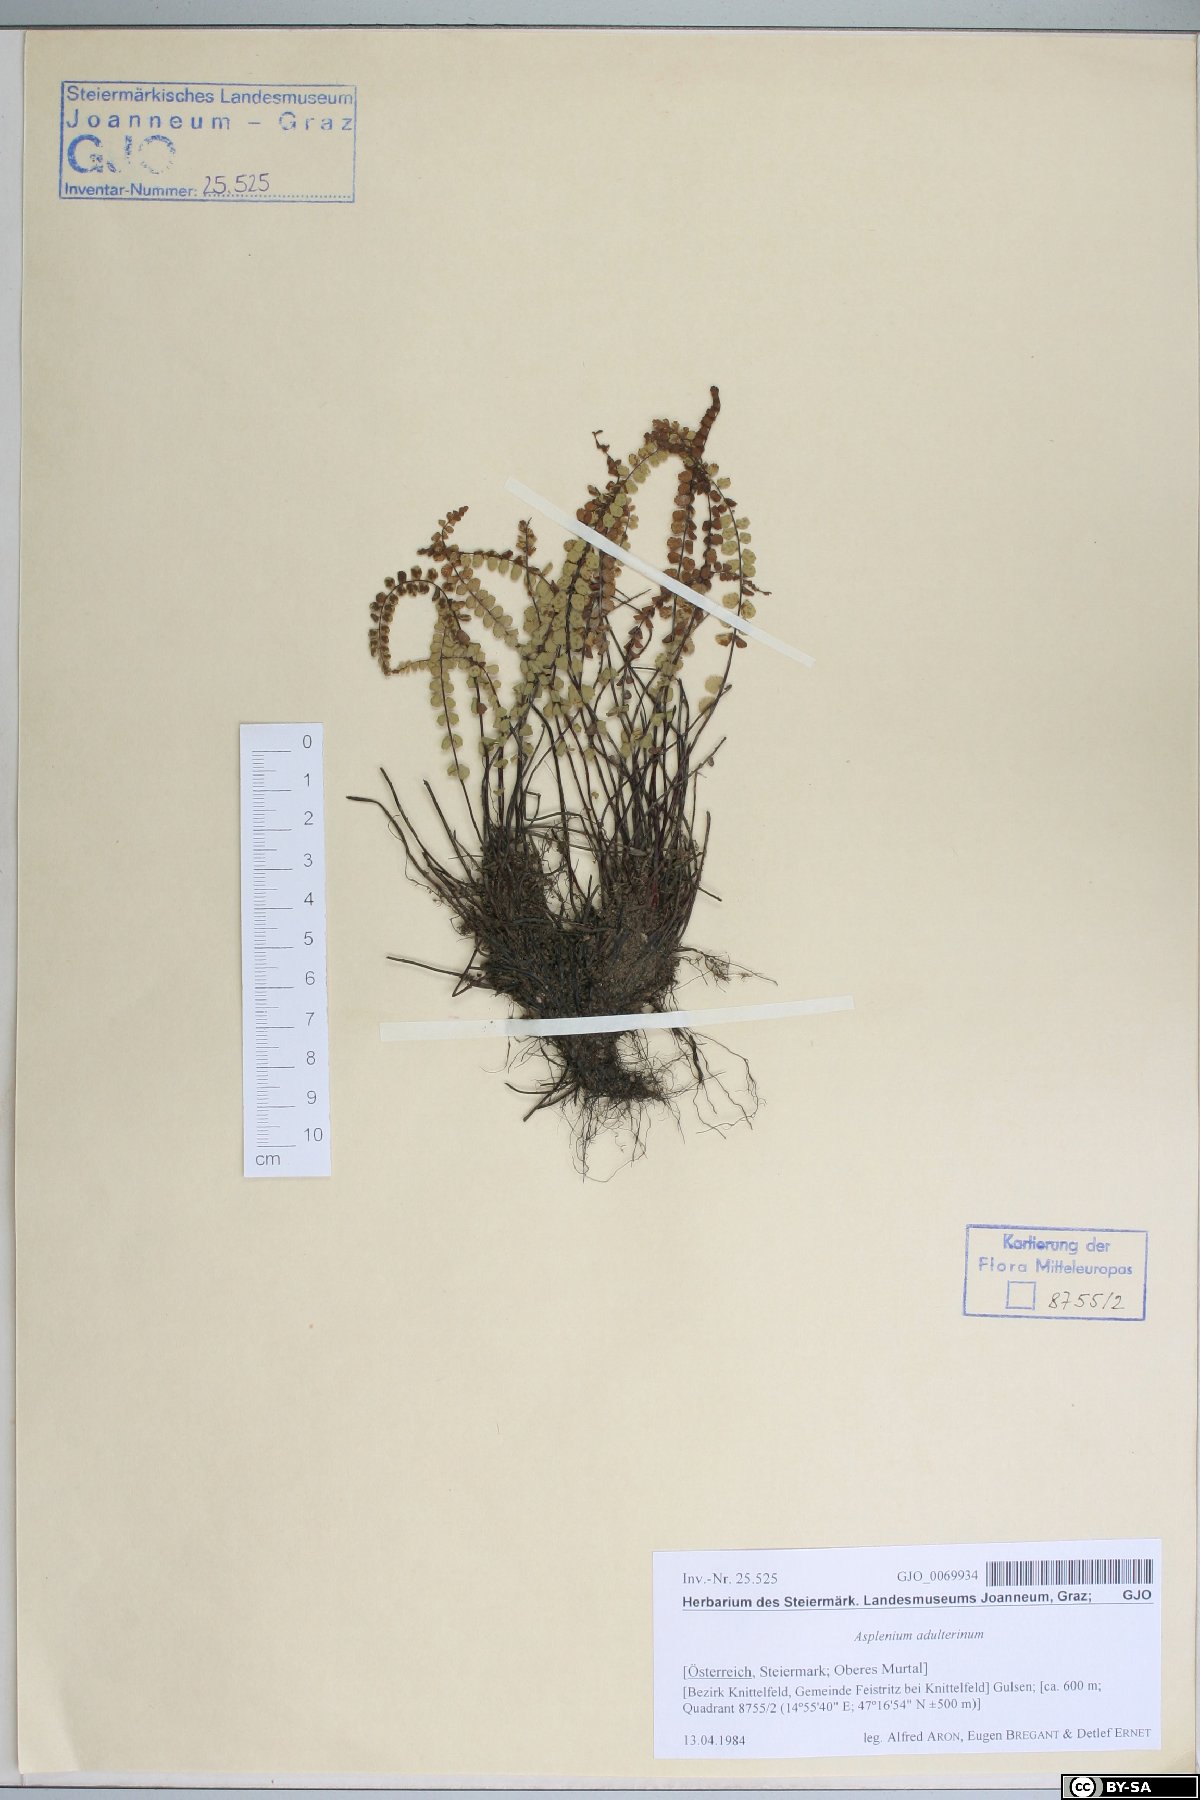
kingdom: Plantae
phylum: Tracheophyta
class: Polypodiopsida
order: Polypodiales
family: Aspleniaceae
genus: Asplenium
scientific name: Asplenium adulterinum
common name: Adulterated spleenwort
